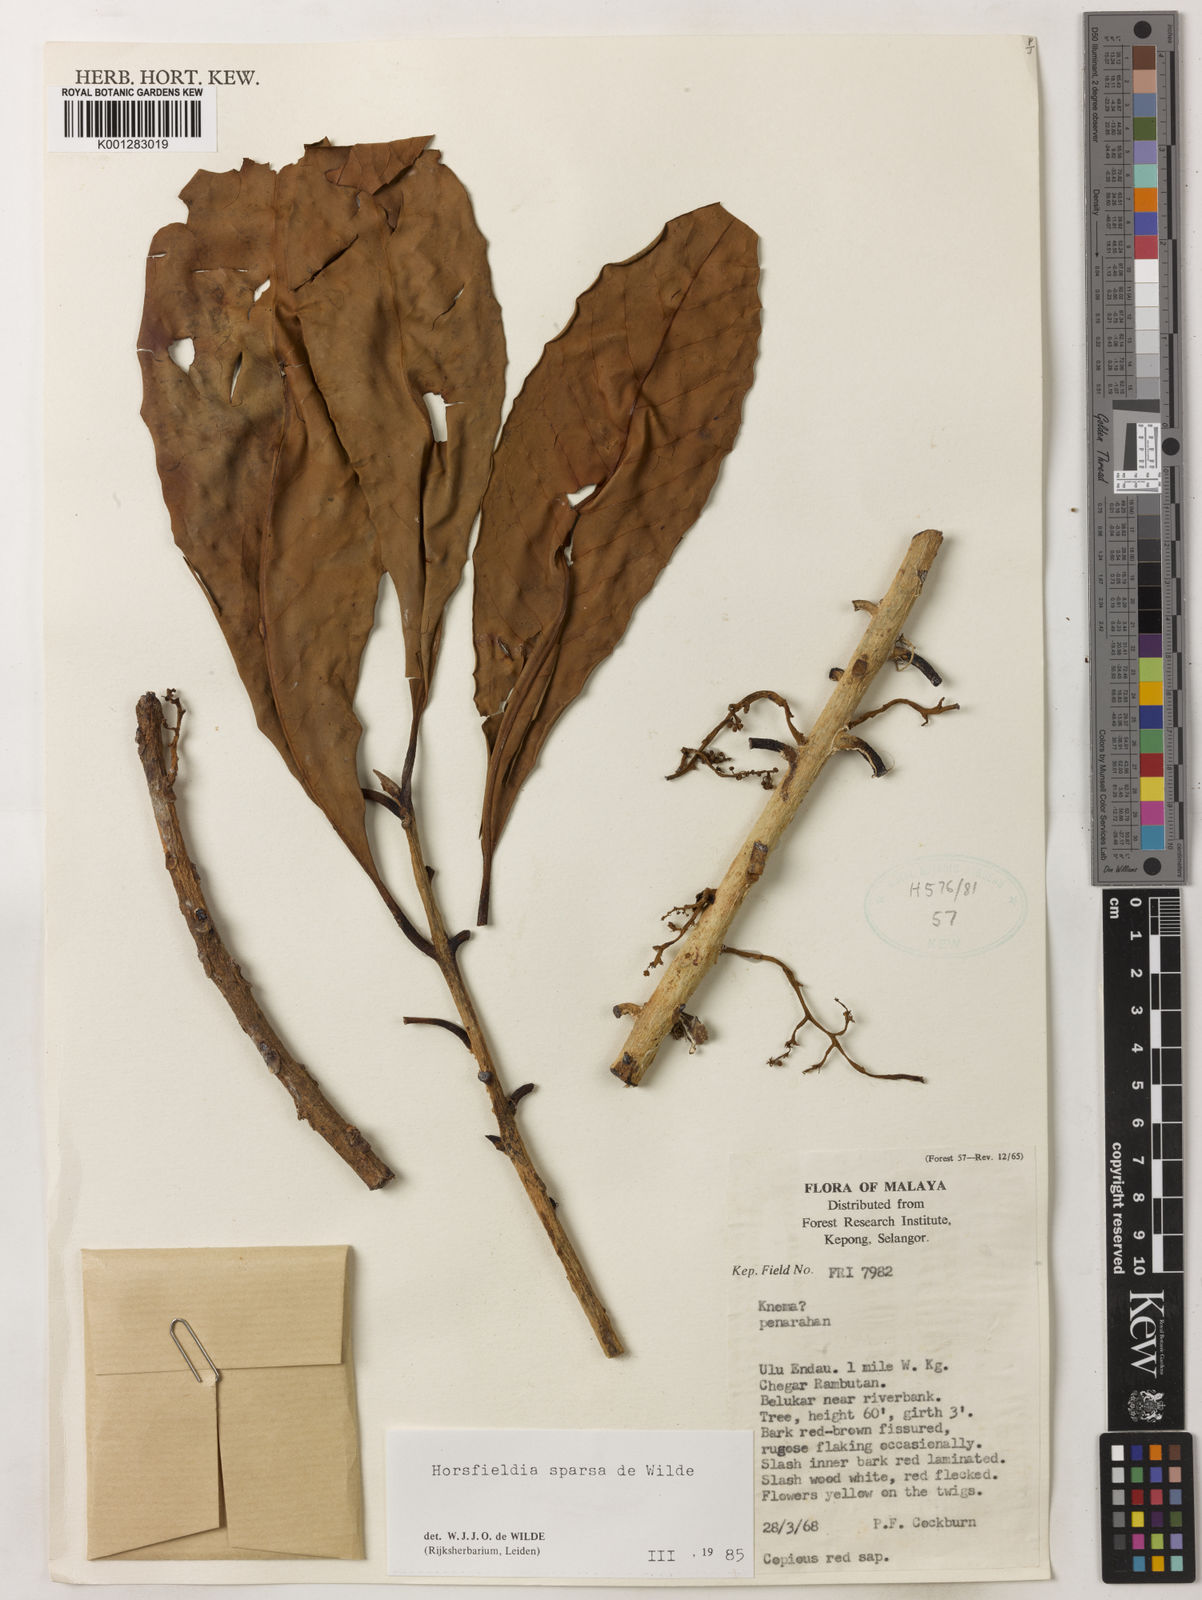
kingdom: Plantae
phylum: Tracheophyta
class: Magnoliopsida
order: Magnoliales
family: Myristicaceae
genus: Horsfieldia
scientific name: Horsfieldia sparsa
